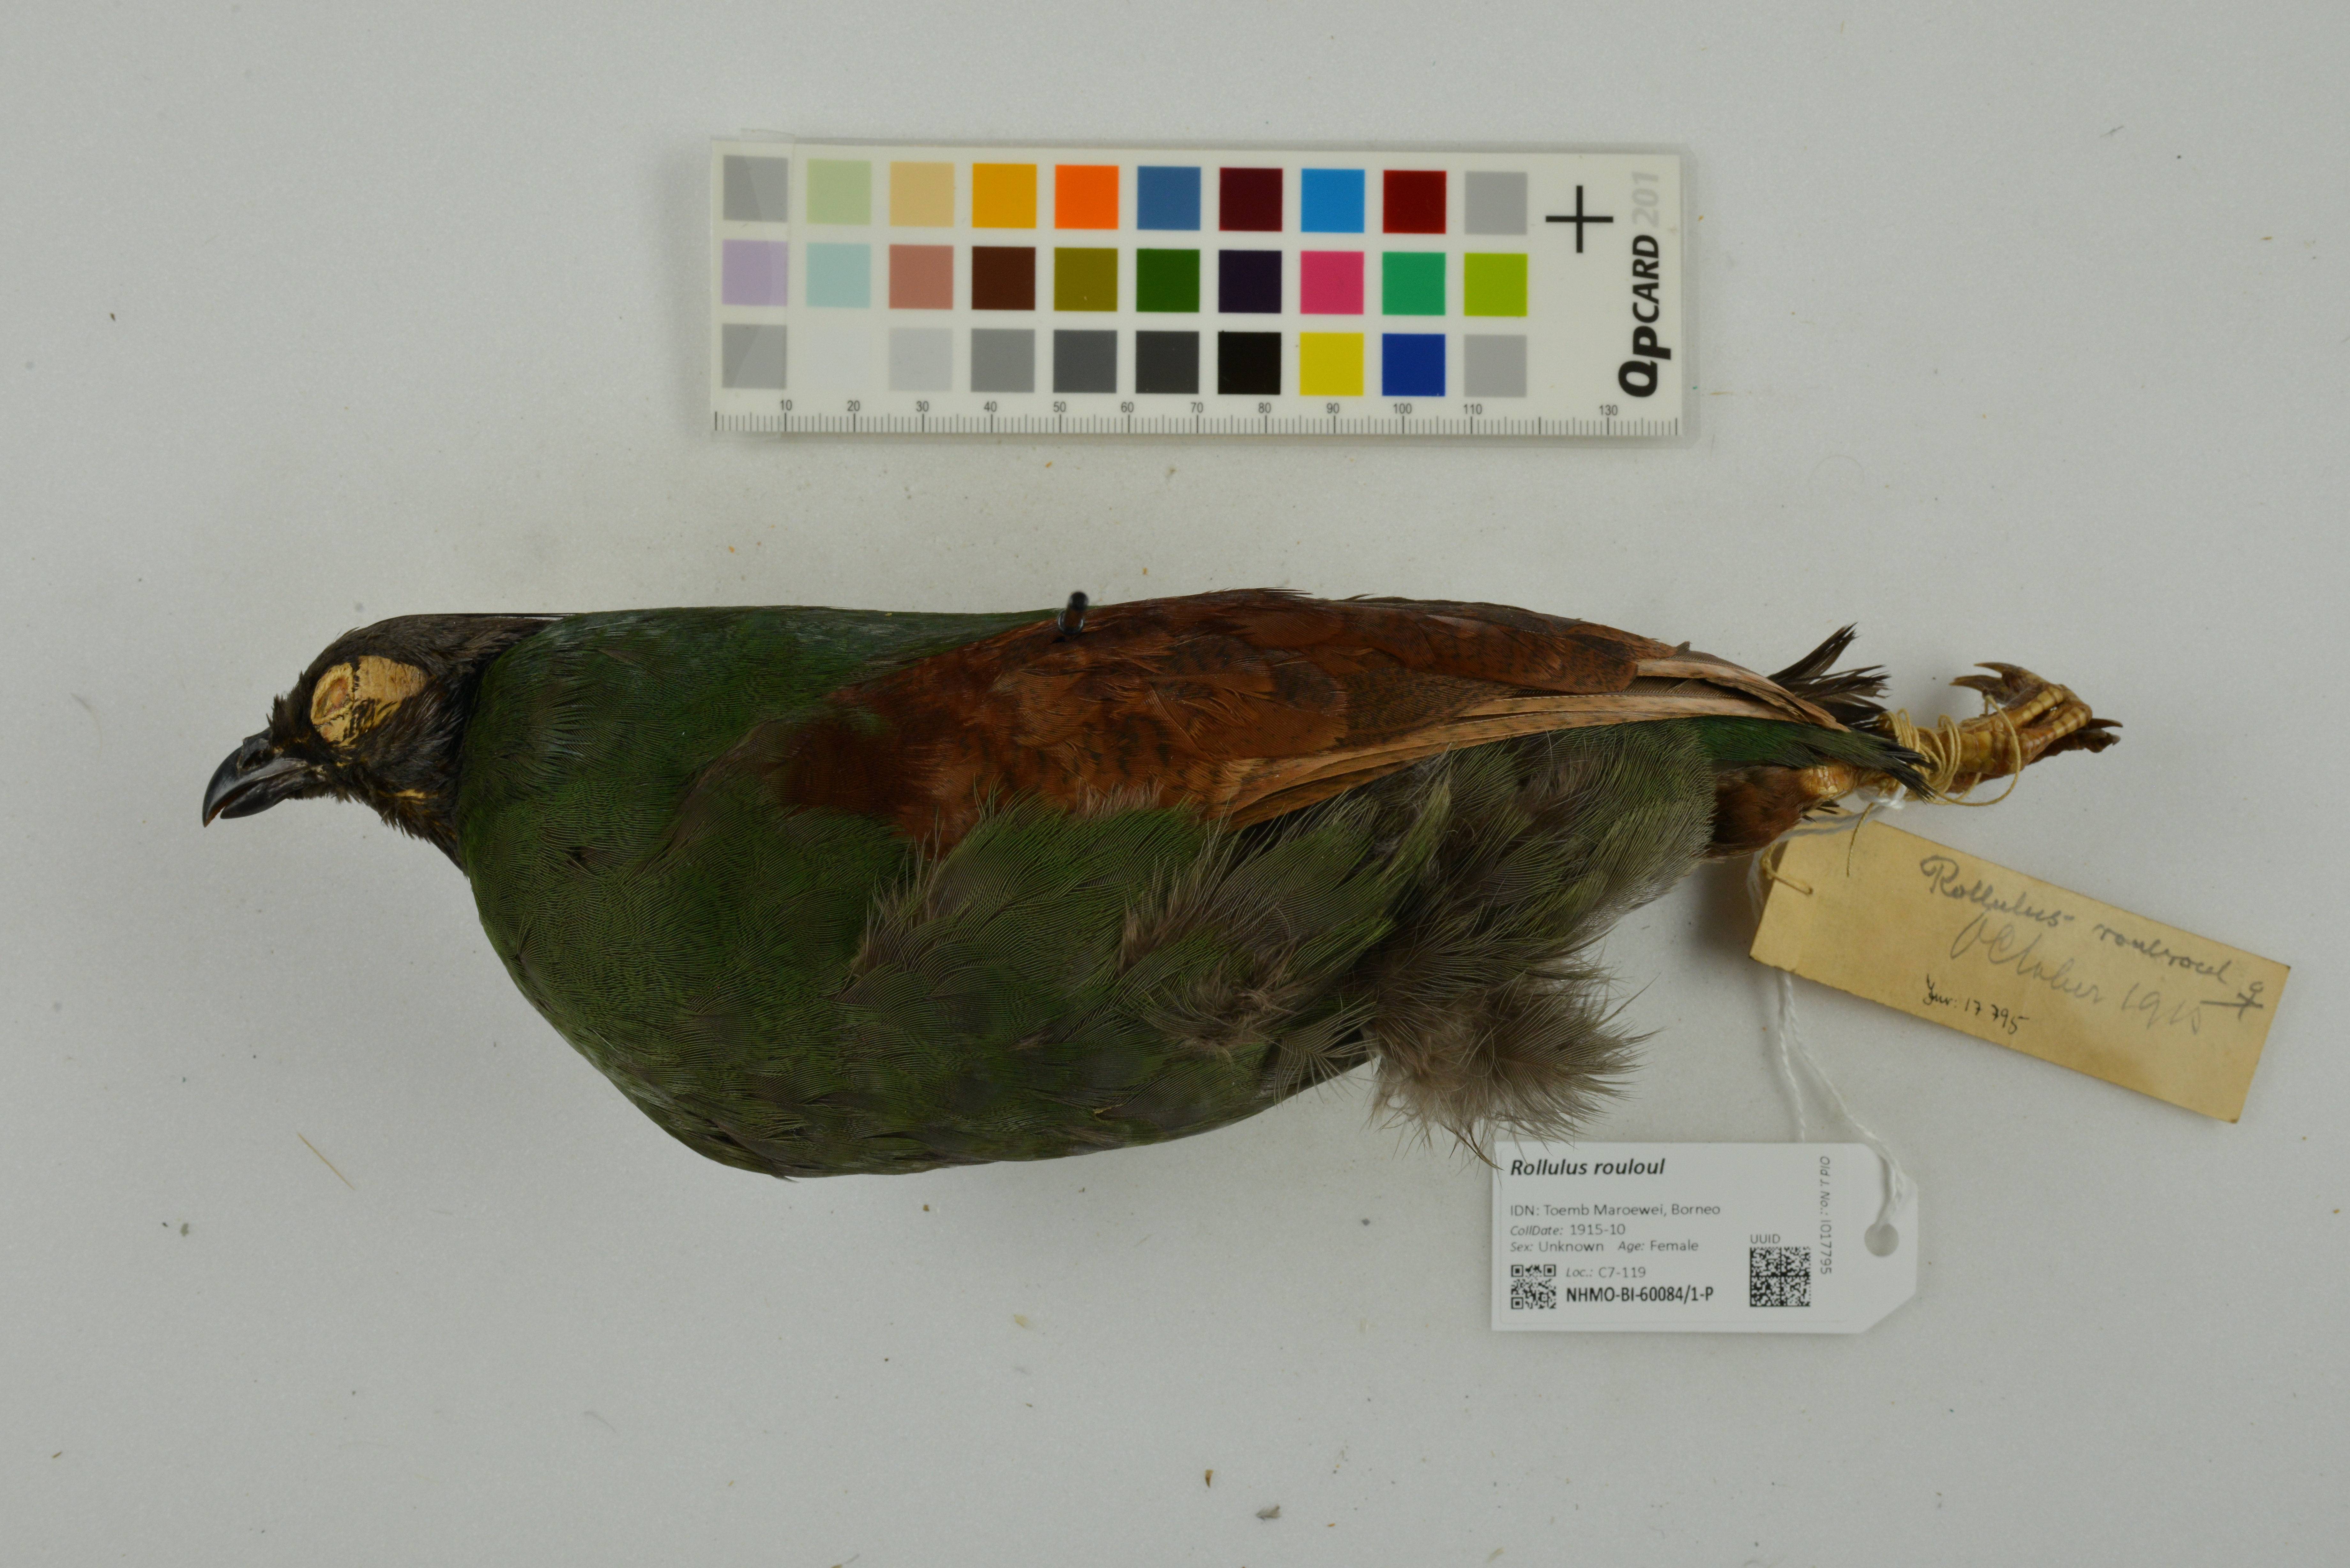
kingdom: Animalia
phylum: Chordata
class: Aves
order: Galliformes
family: Phasianidae
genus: Rollulus
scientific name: Rollulus rouloul
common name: Crested partridge
